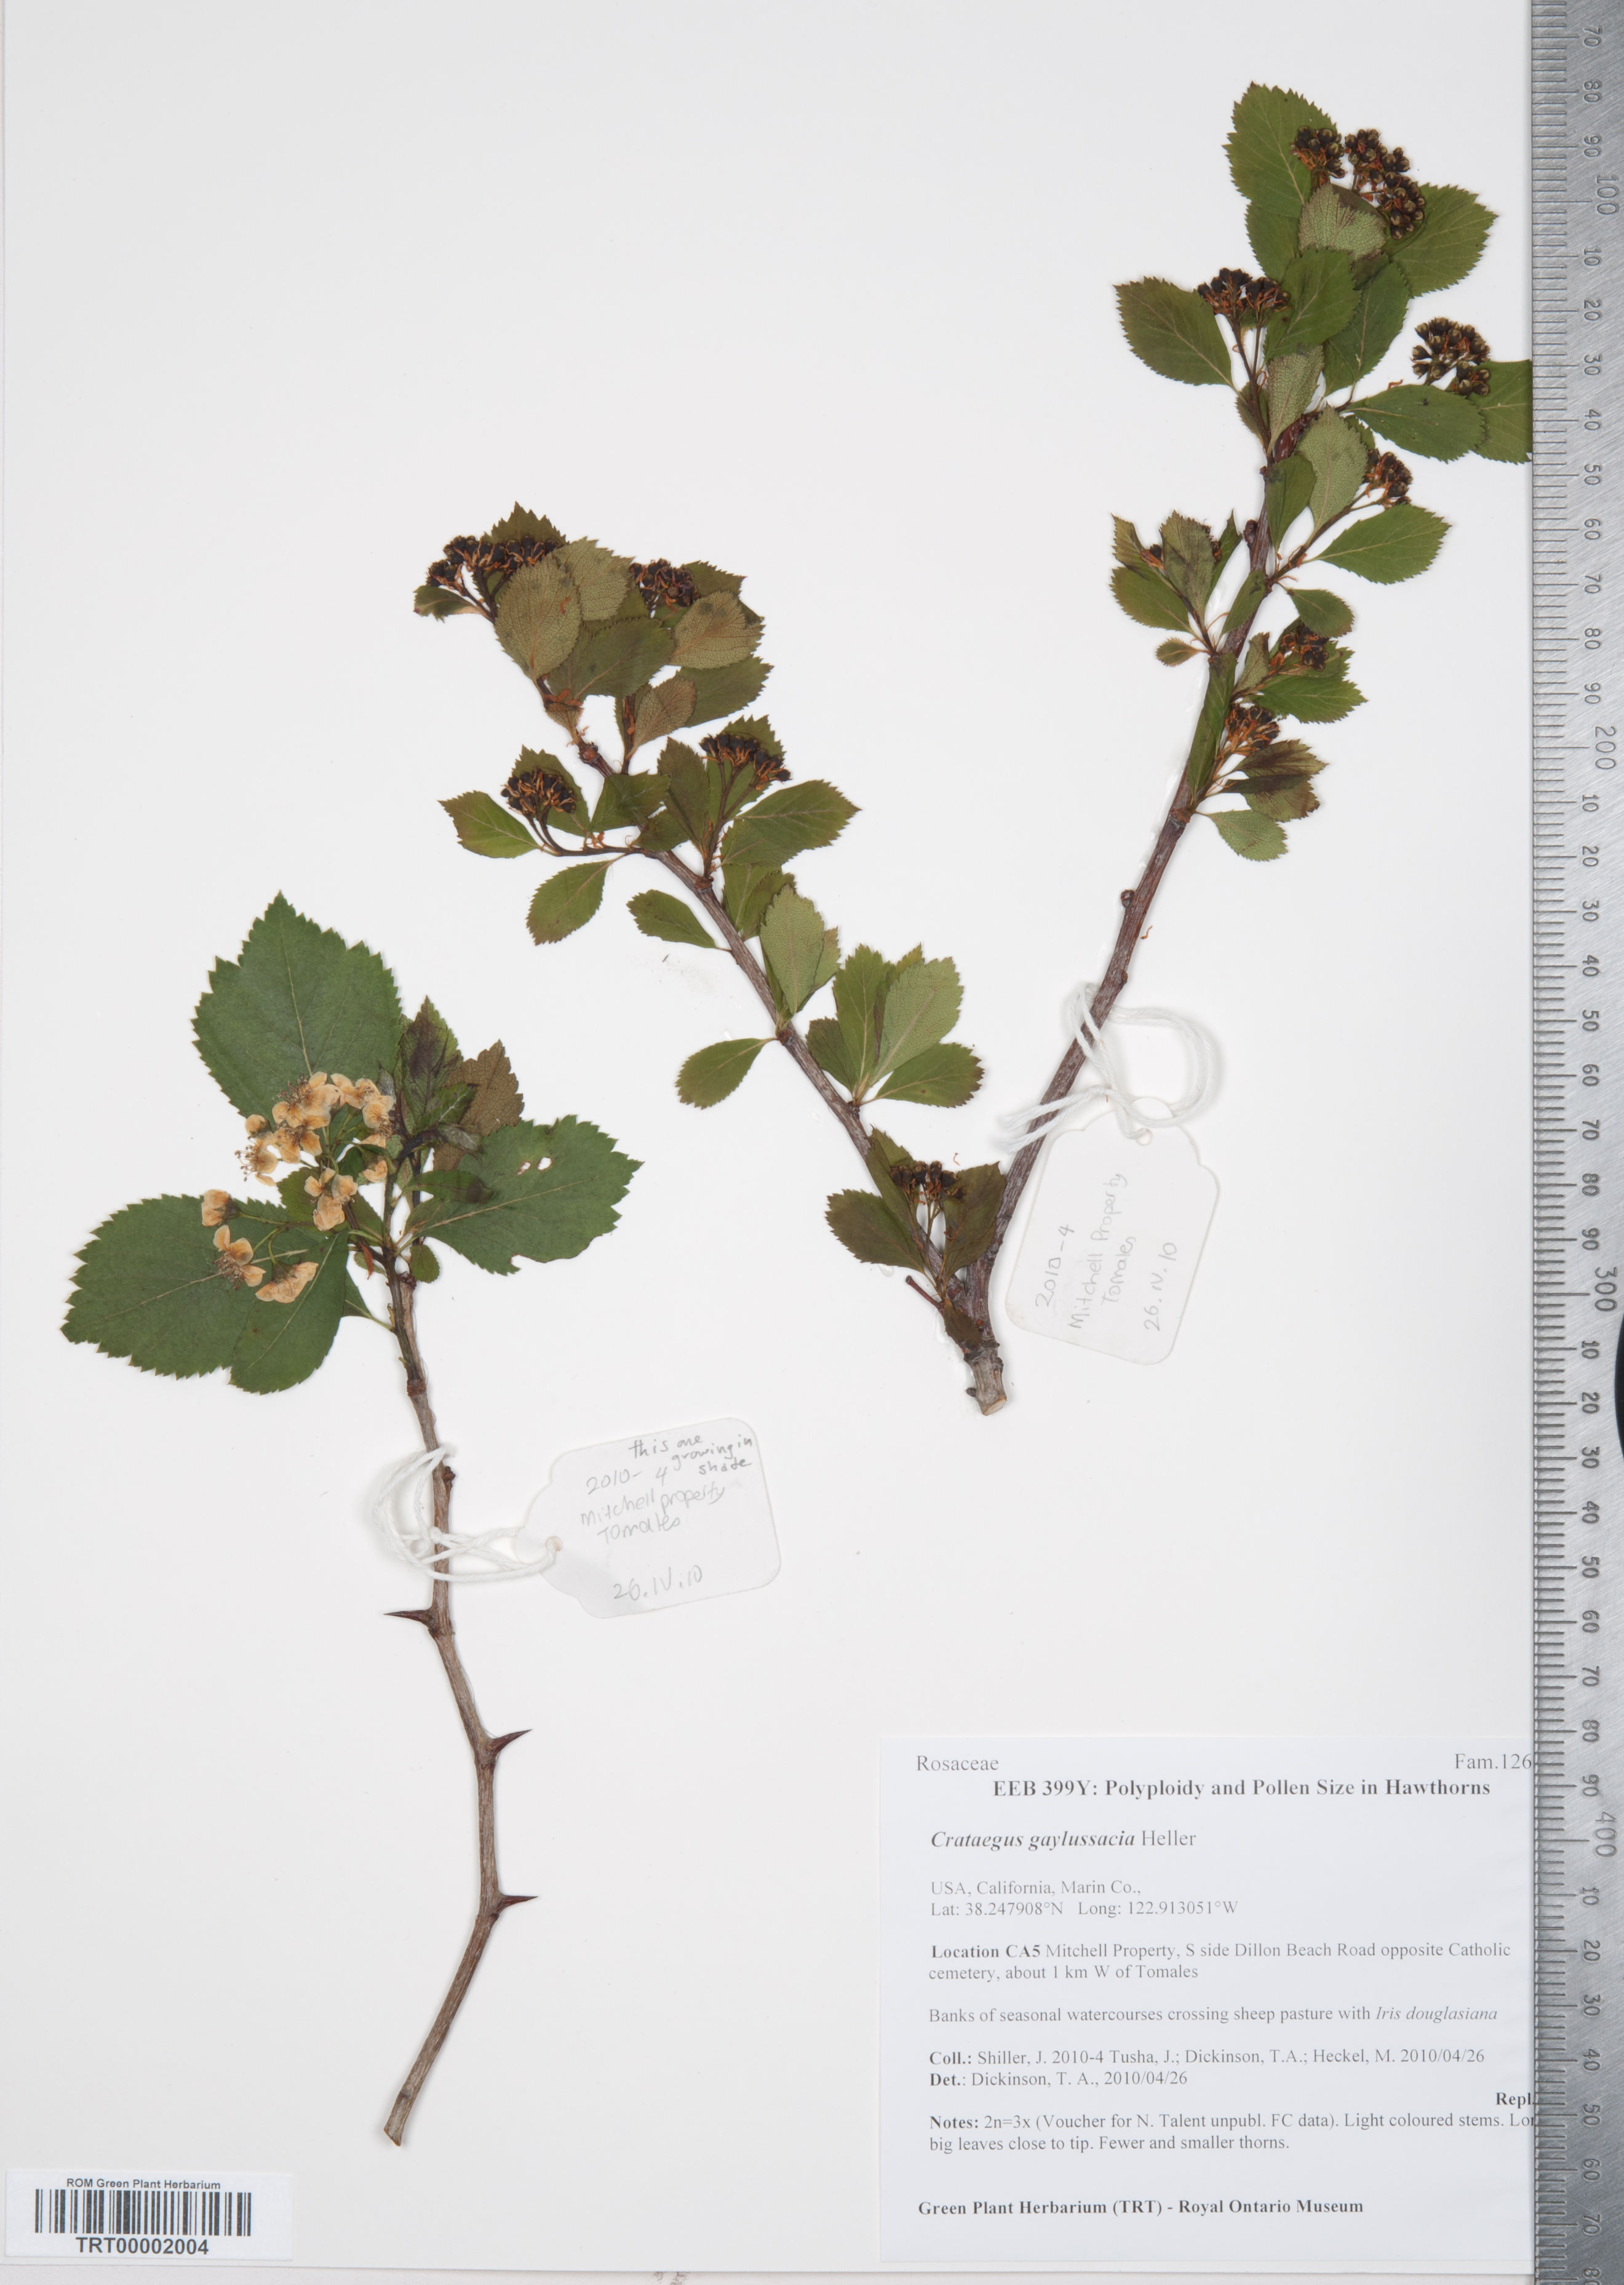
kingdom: Plantae
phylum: Tracheophyta
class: Magnoliopsida
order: Rosales
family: Rosaceae
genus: Crataegus
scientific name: Crataegus gaylussacia
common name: Huckleberry hawthorn
